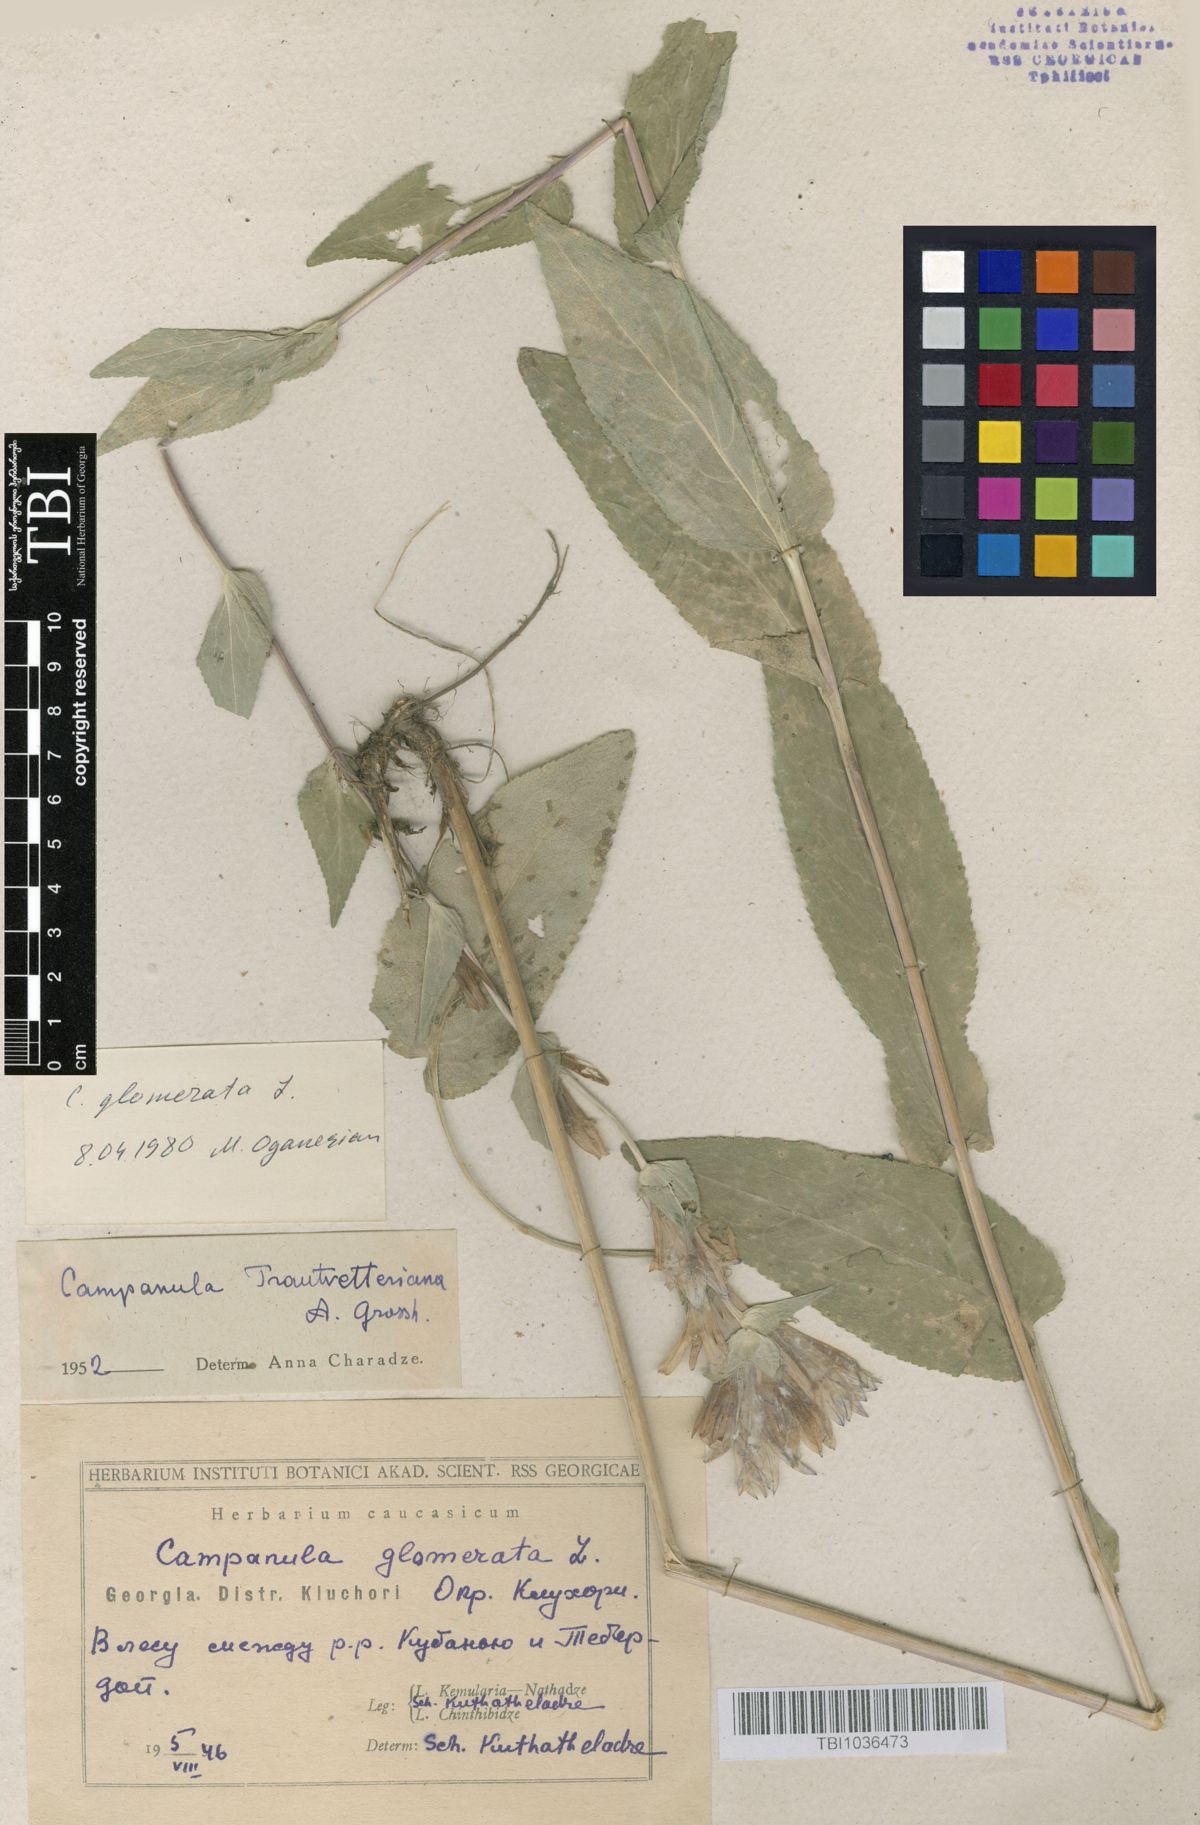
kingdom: Plantae
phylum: Tracheophyta
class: Magnoliopsida
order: Asterales
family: Campanulaceae
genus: Campanula
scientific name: Campanula glomerata
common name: Clustered bellflower
